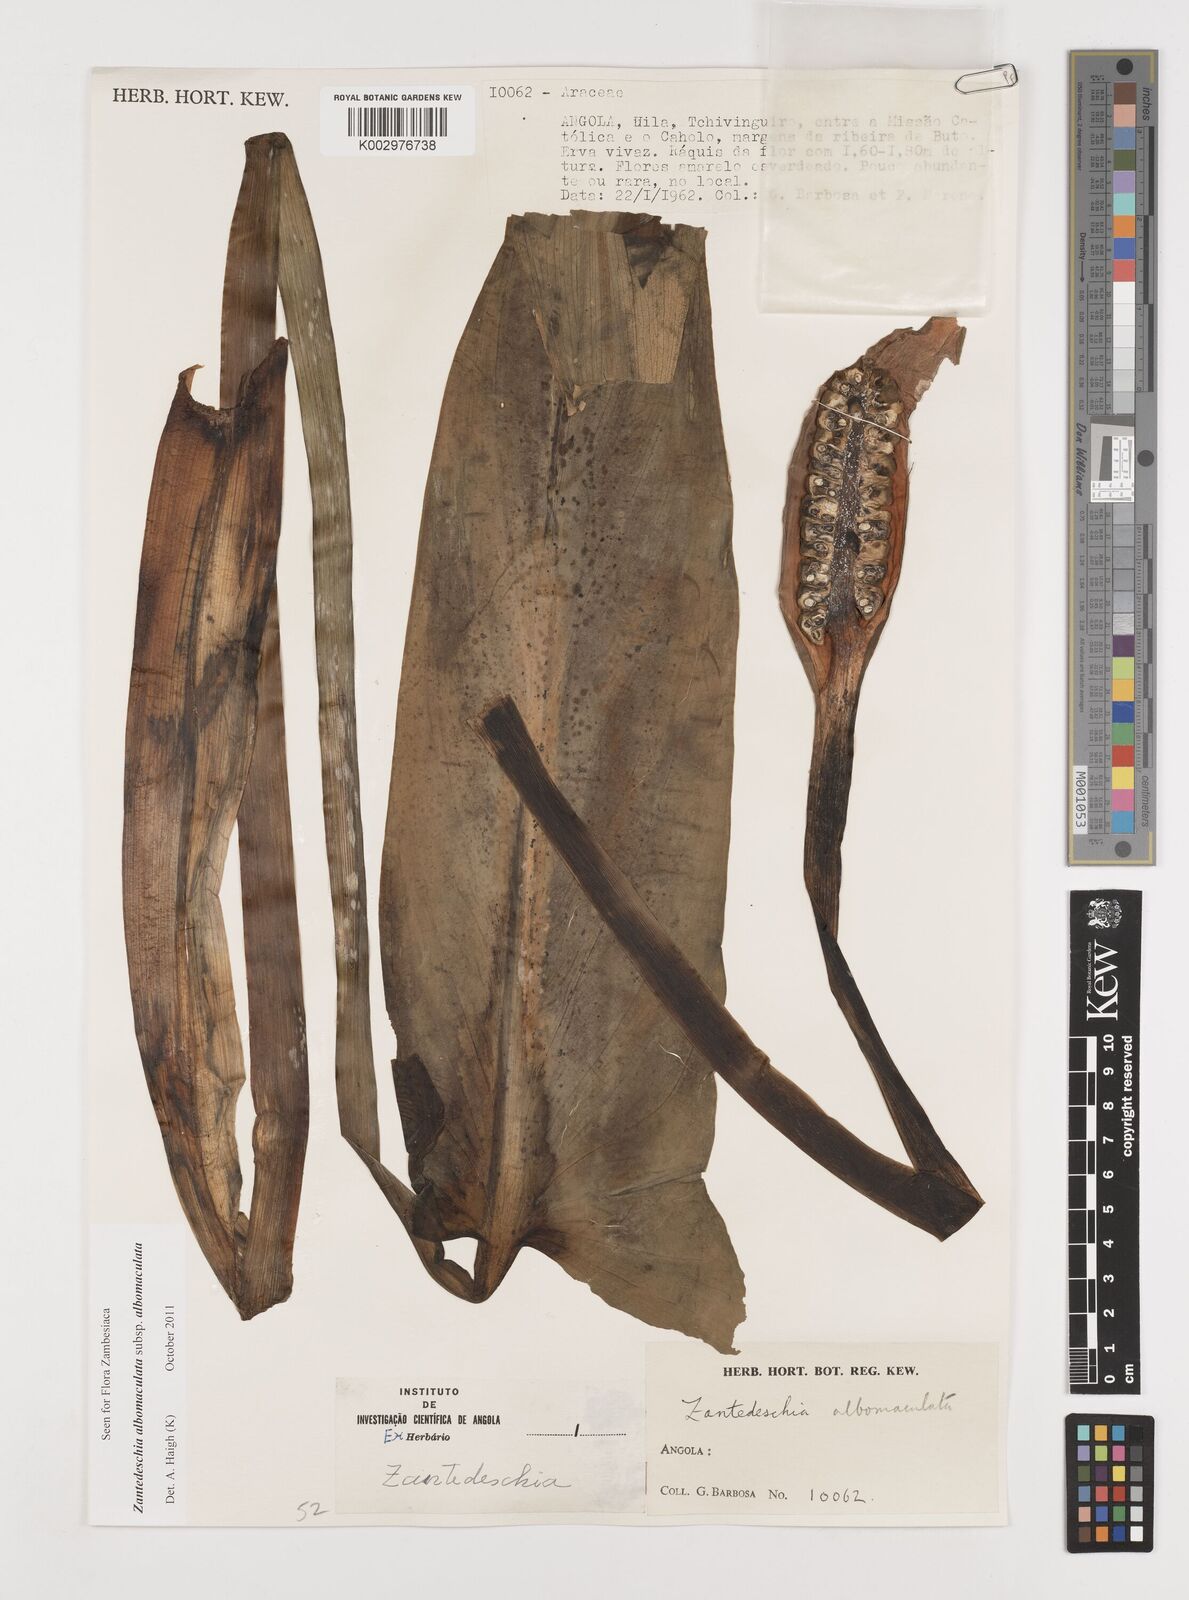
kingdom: Plantae
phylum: Tracheophyta
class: Liliopsida
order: Alismatales
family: Araceae
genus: Zantedeschia
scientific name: Zantedeschia albomaculata
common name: Spotted calla lily
